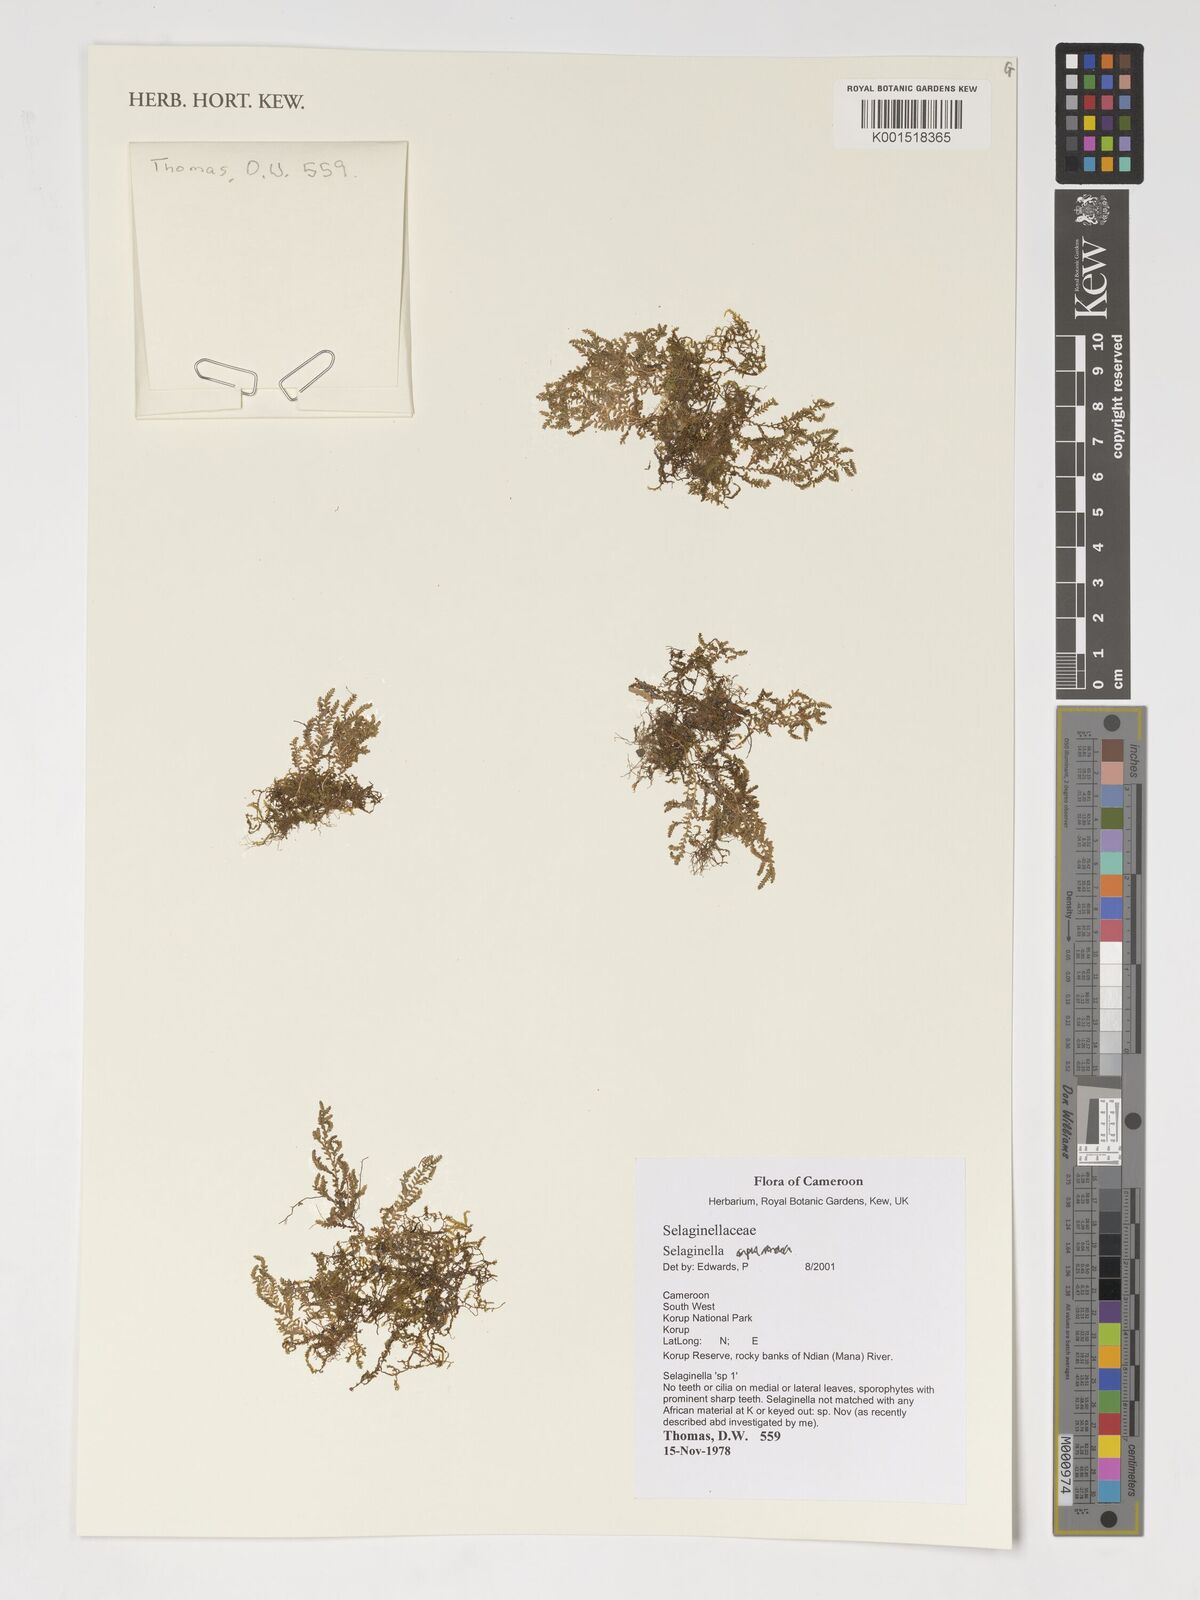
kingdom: Plantae
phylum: Tracheophyta
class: Lycopodiopsida
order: Selaginellales
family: Selaginellaceae
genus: Selaginella
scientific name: Selaginella
